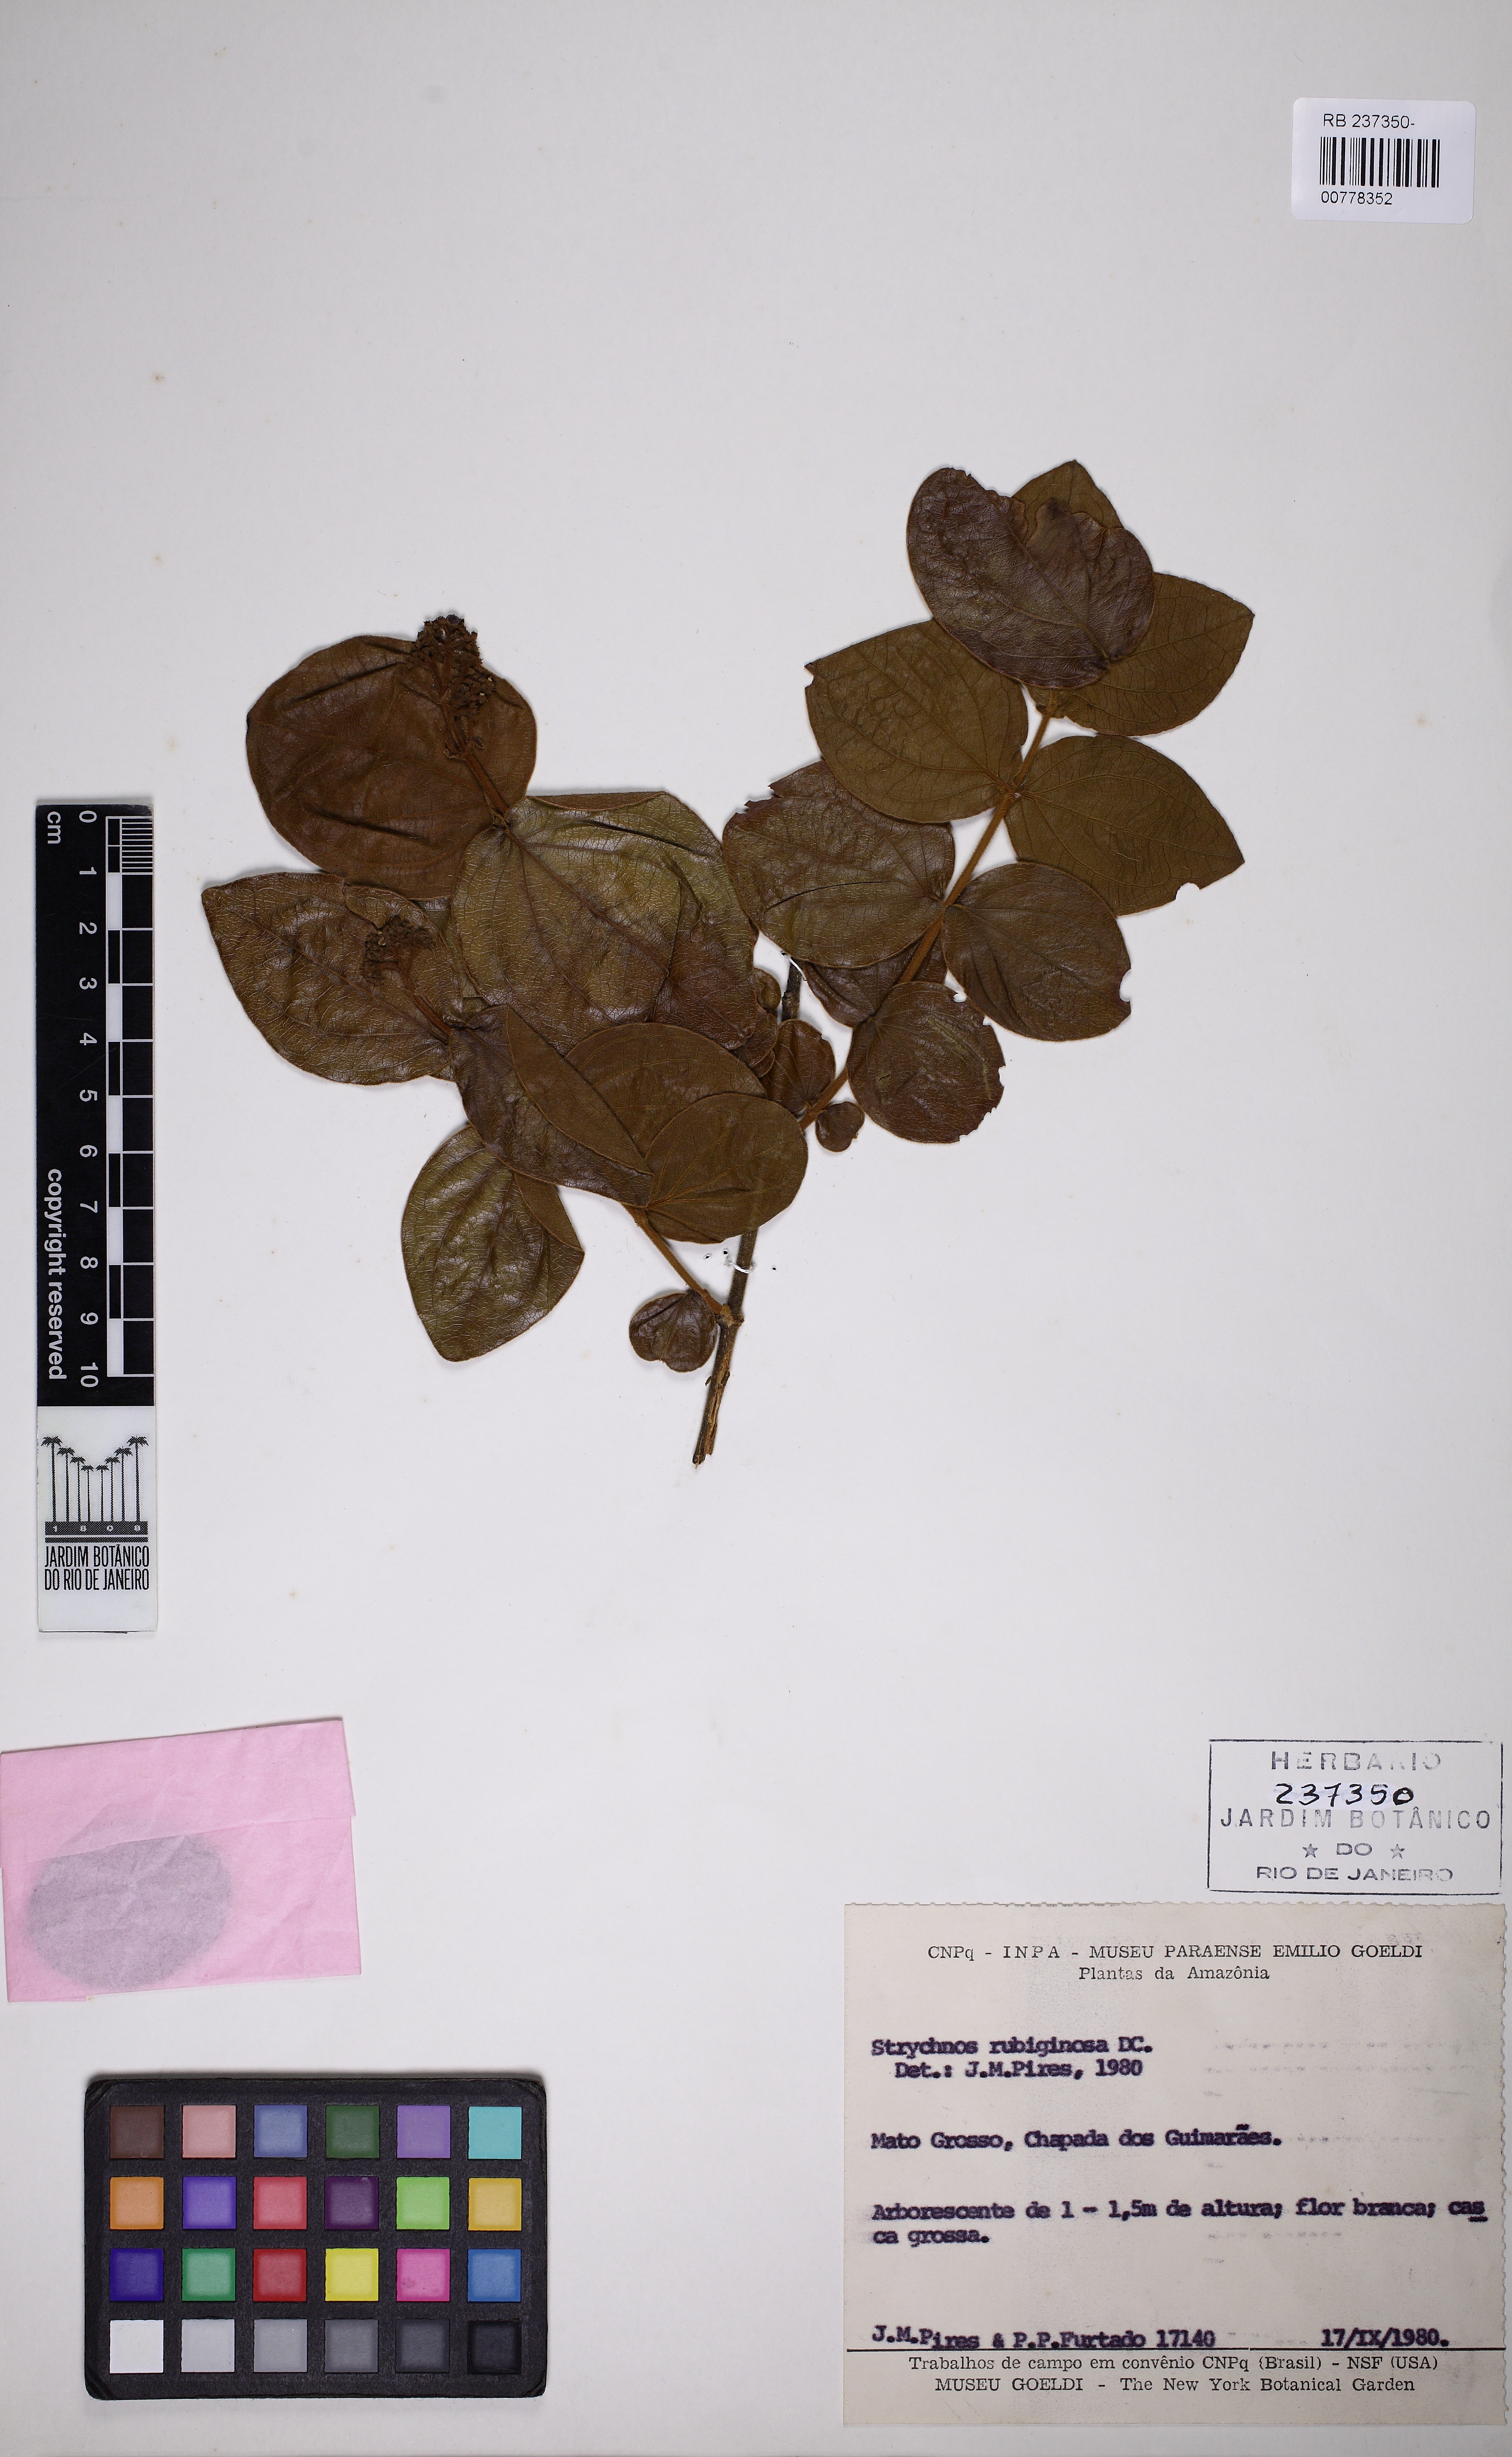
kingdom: Plantae
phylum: Tracheophyta
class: Magnoliopsida
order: Gentianales
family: Loganiaceae
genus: Strychnos
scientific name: Strychnos rubiginosa
